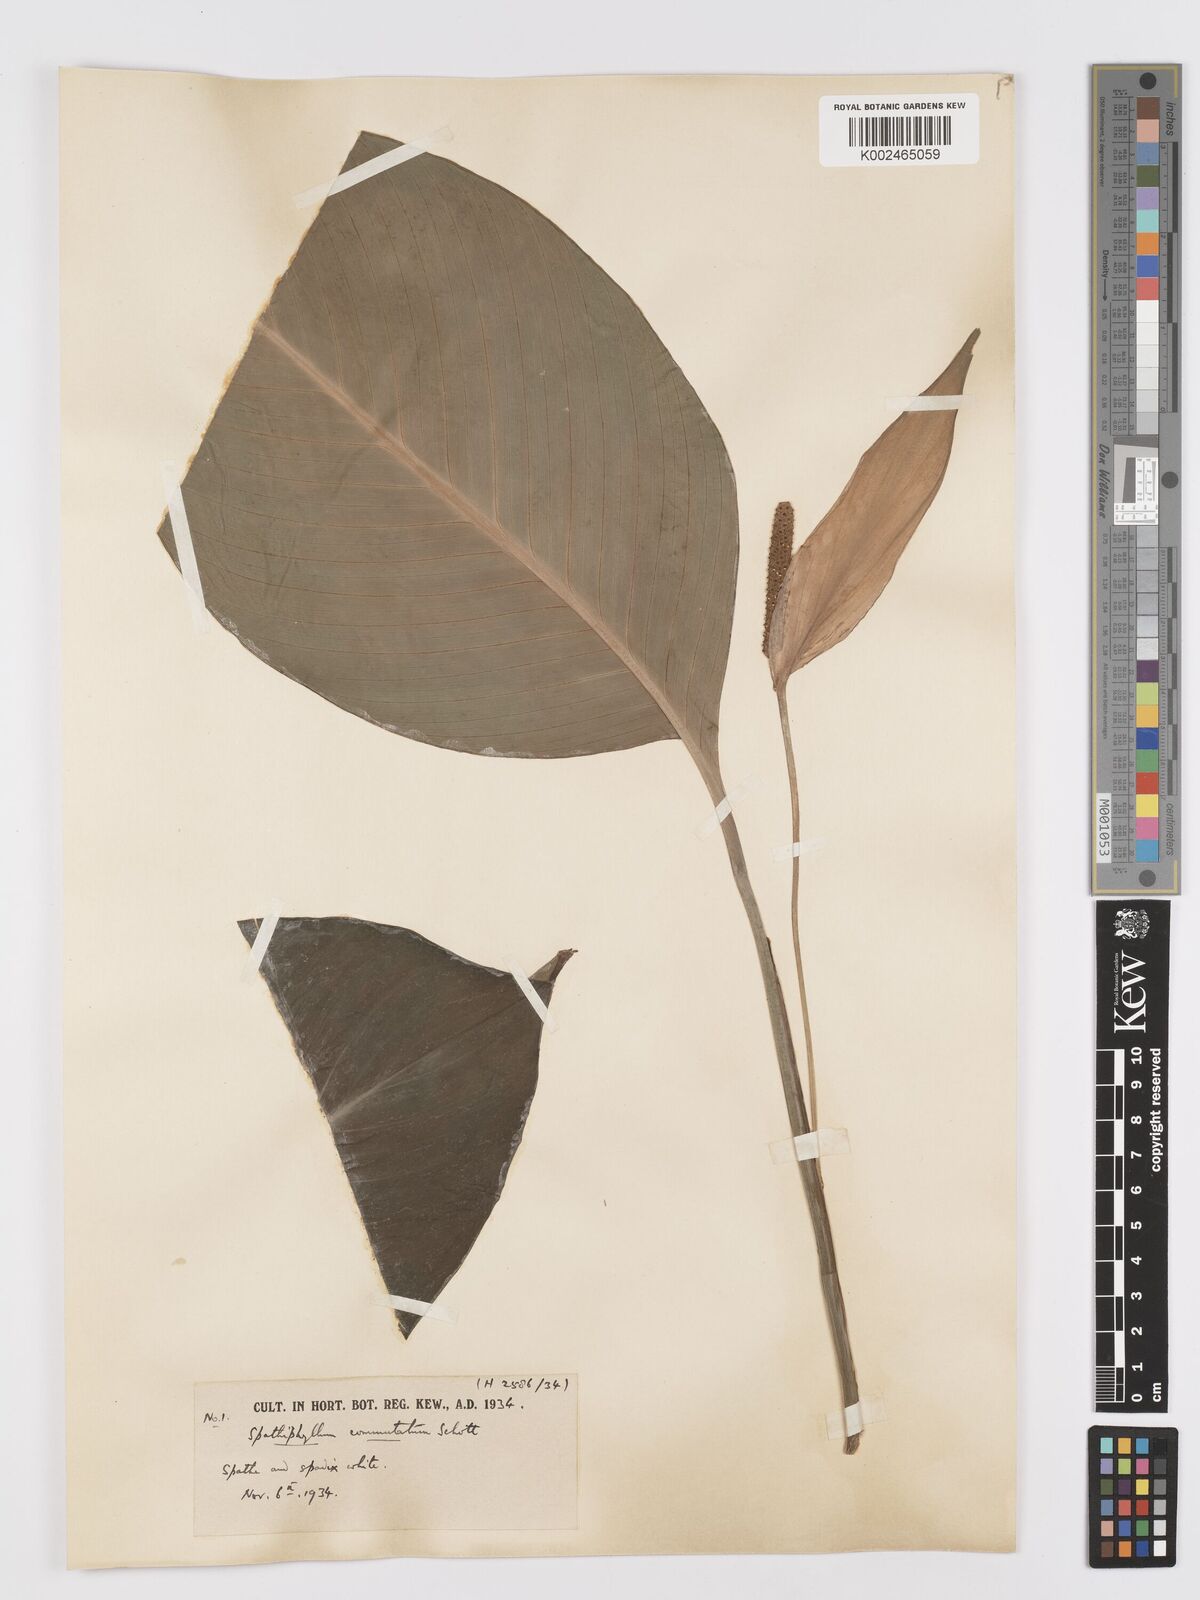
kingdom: Plantae
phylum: Tracheophyta
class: Liliopsida
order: Alismatales
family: Araceae
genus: Spathiphyllum
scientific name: Spathiphyllum commutatum
